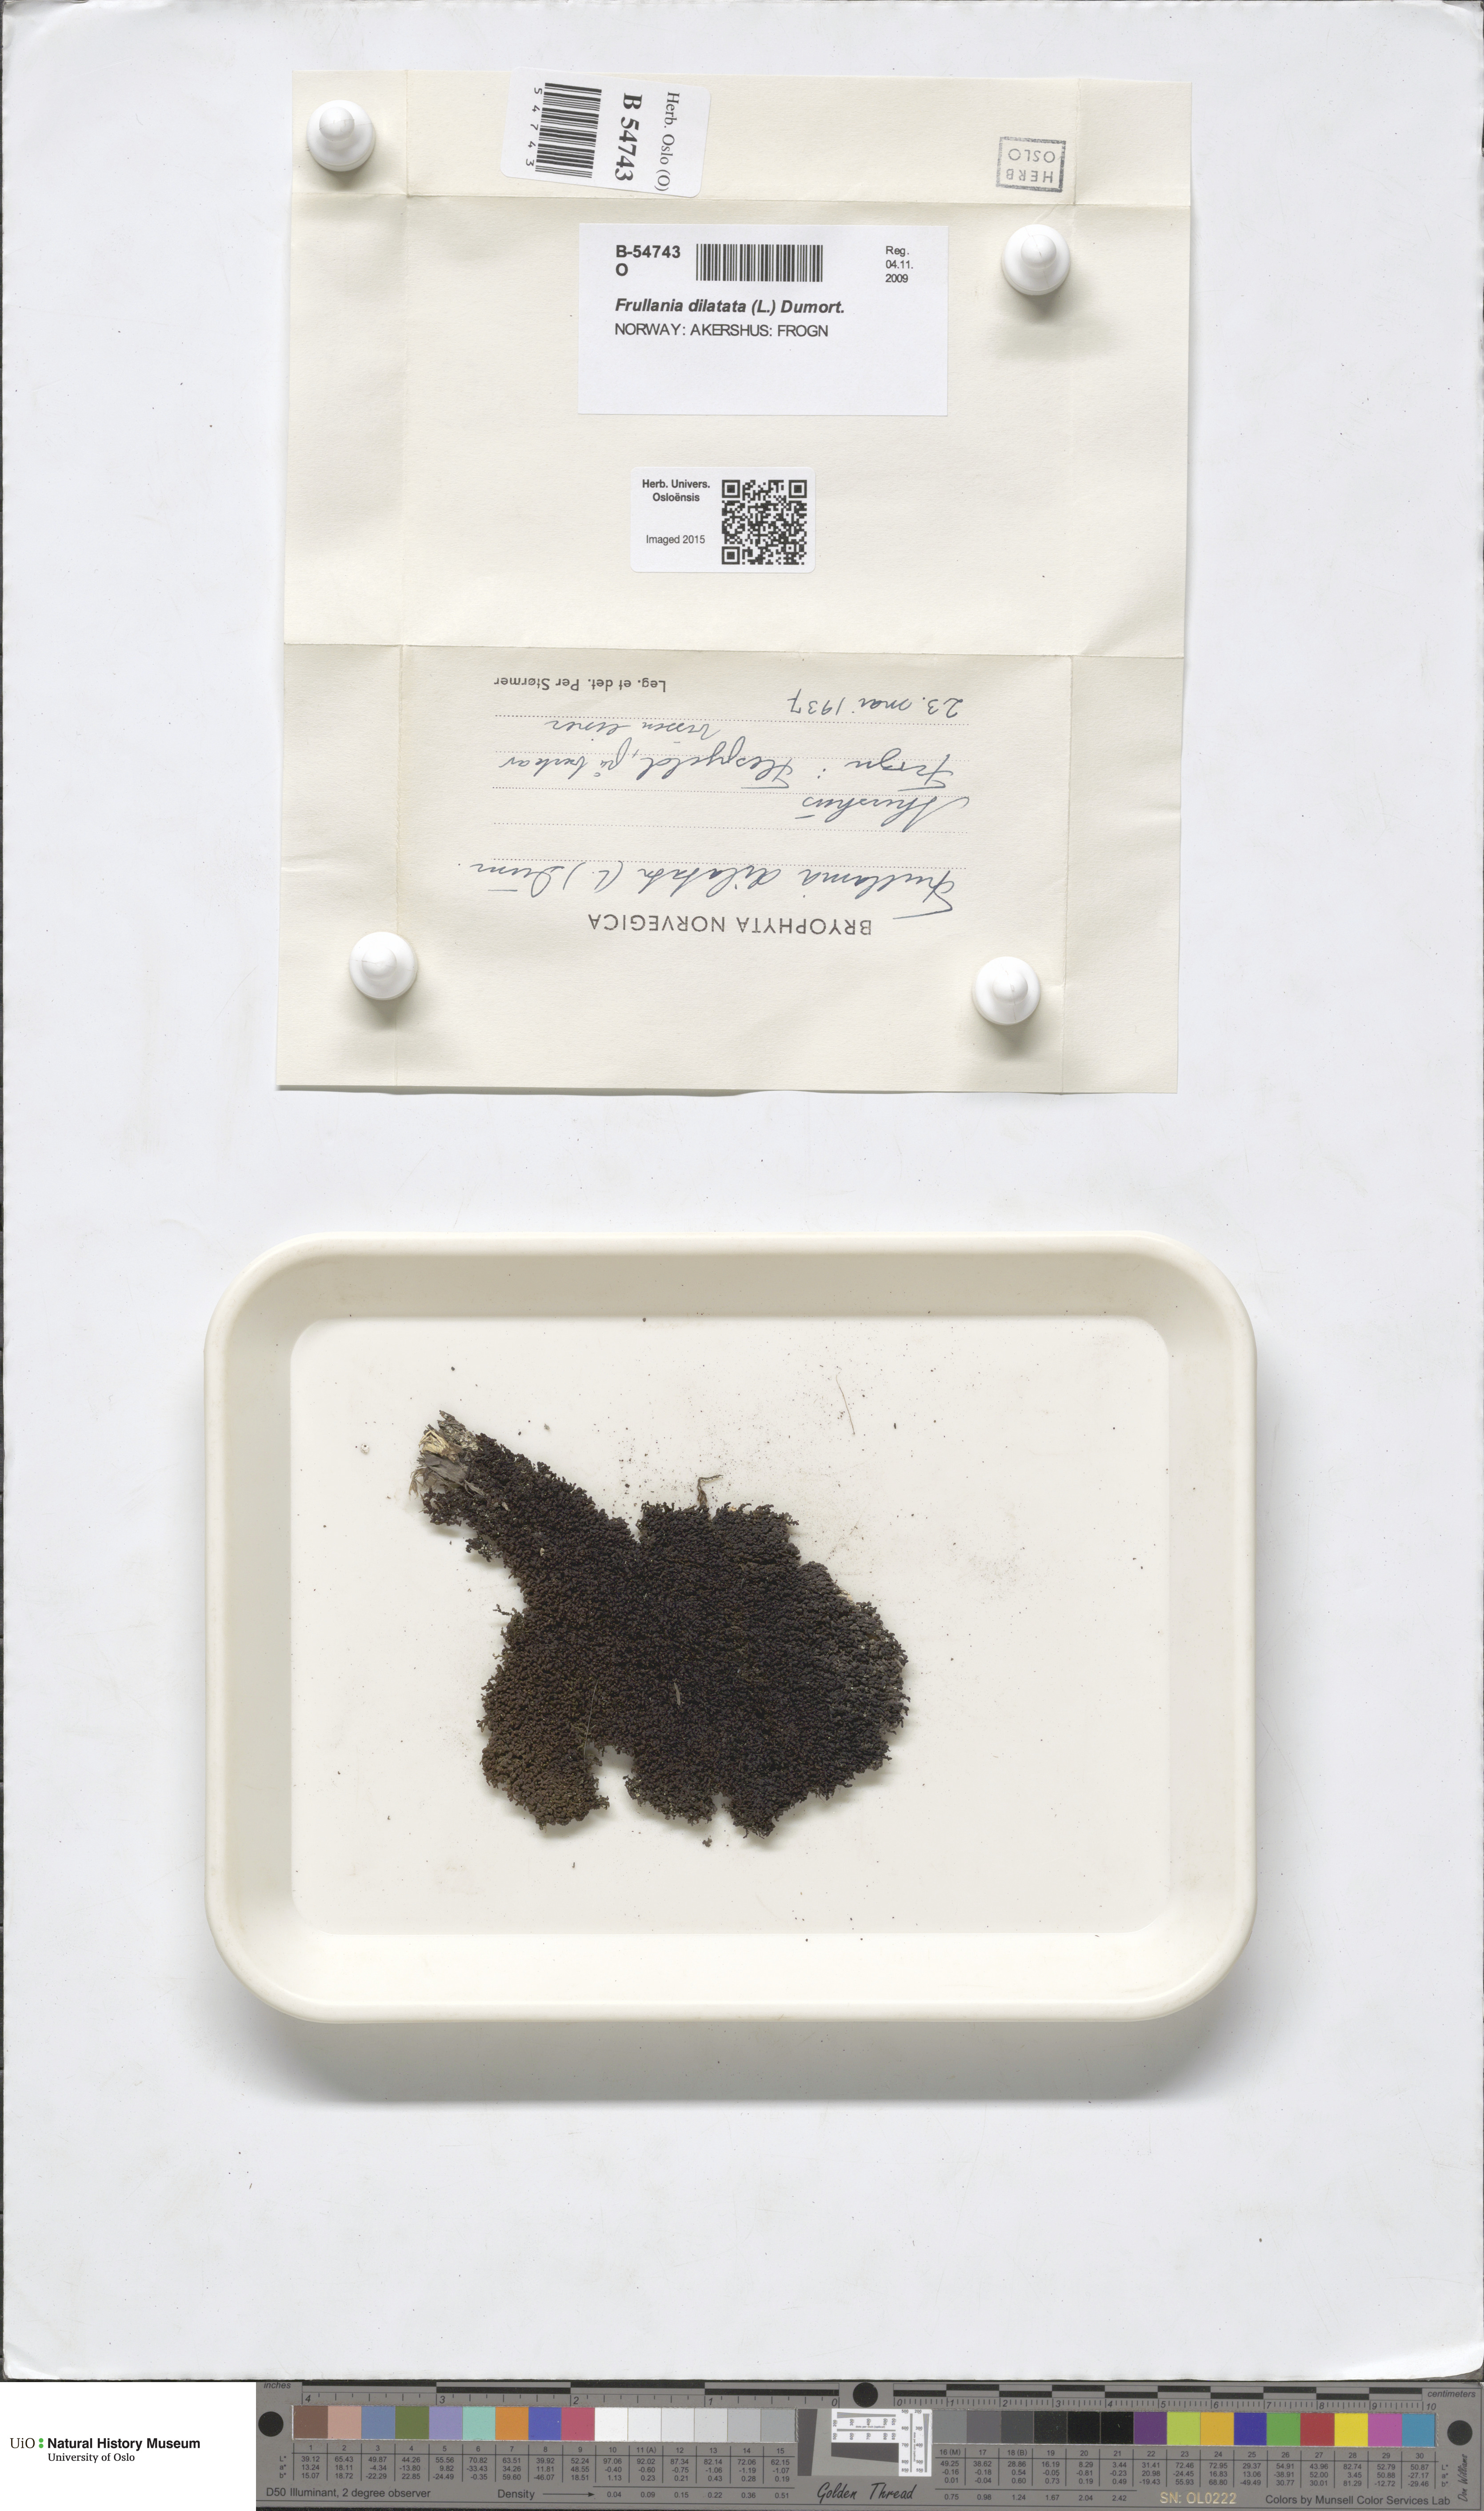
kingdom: Plantae
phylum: Marchantiophyta
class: Jungermanniopsida
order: Porellales
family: Frullaniaceae
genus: Frullania
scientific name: Frullania dilatata
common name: Dilated scalewort
